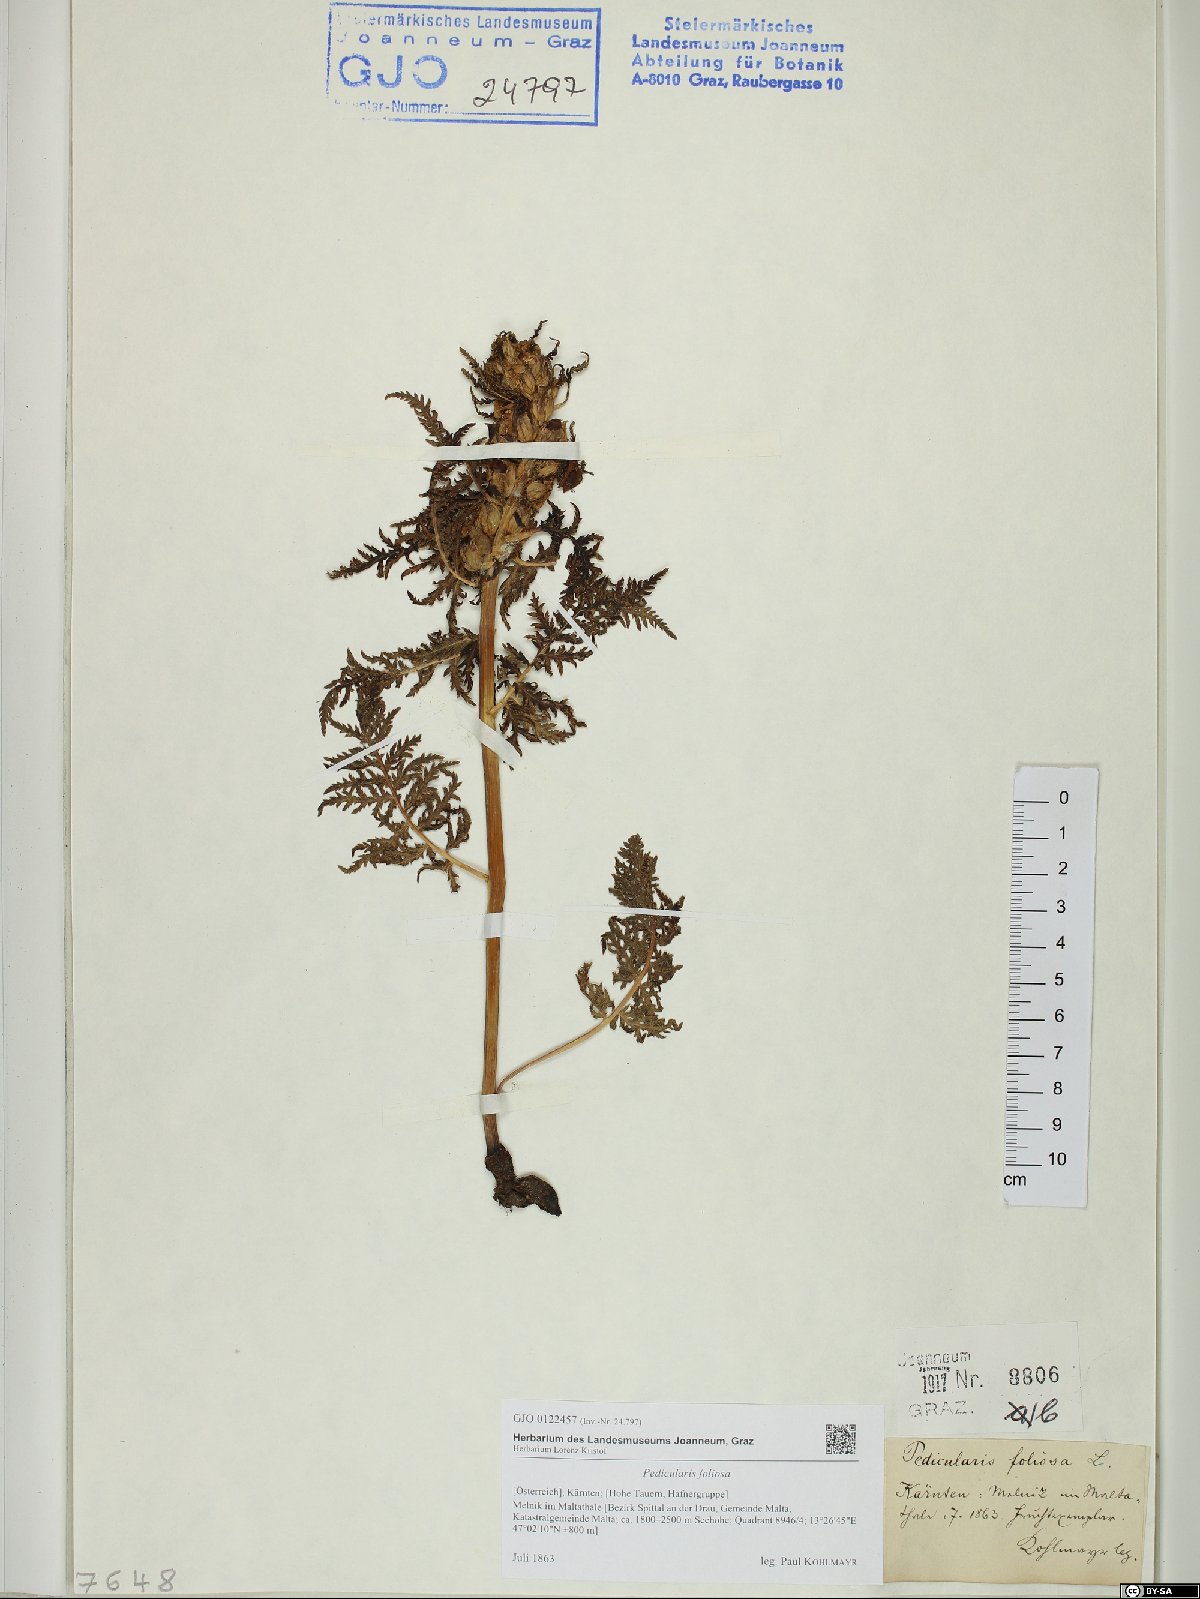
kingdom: Plantae
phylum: Tracheophyta
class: Magnoliopsida
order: Lamiales
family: Orobanchaceae
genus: Pedicularis
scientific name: Pedicularis foliosa
